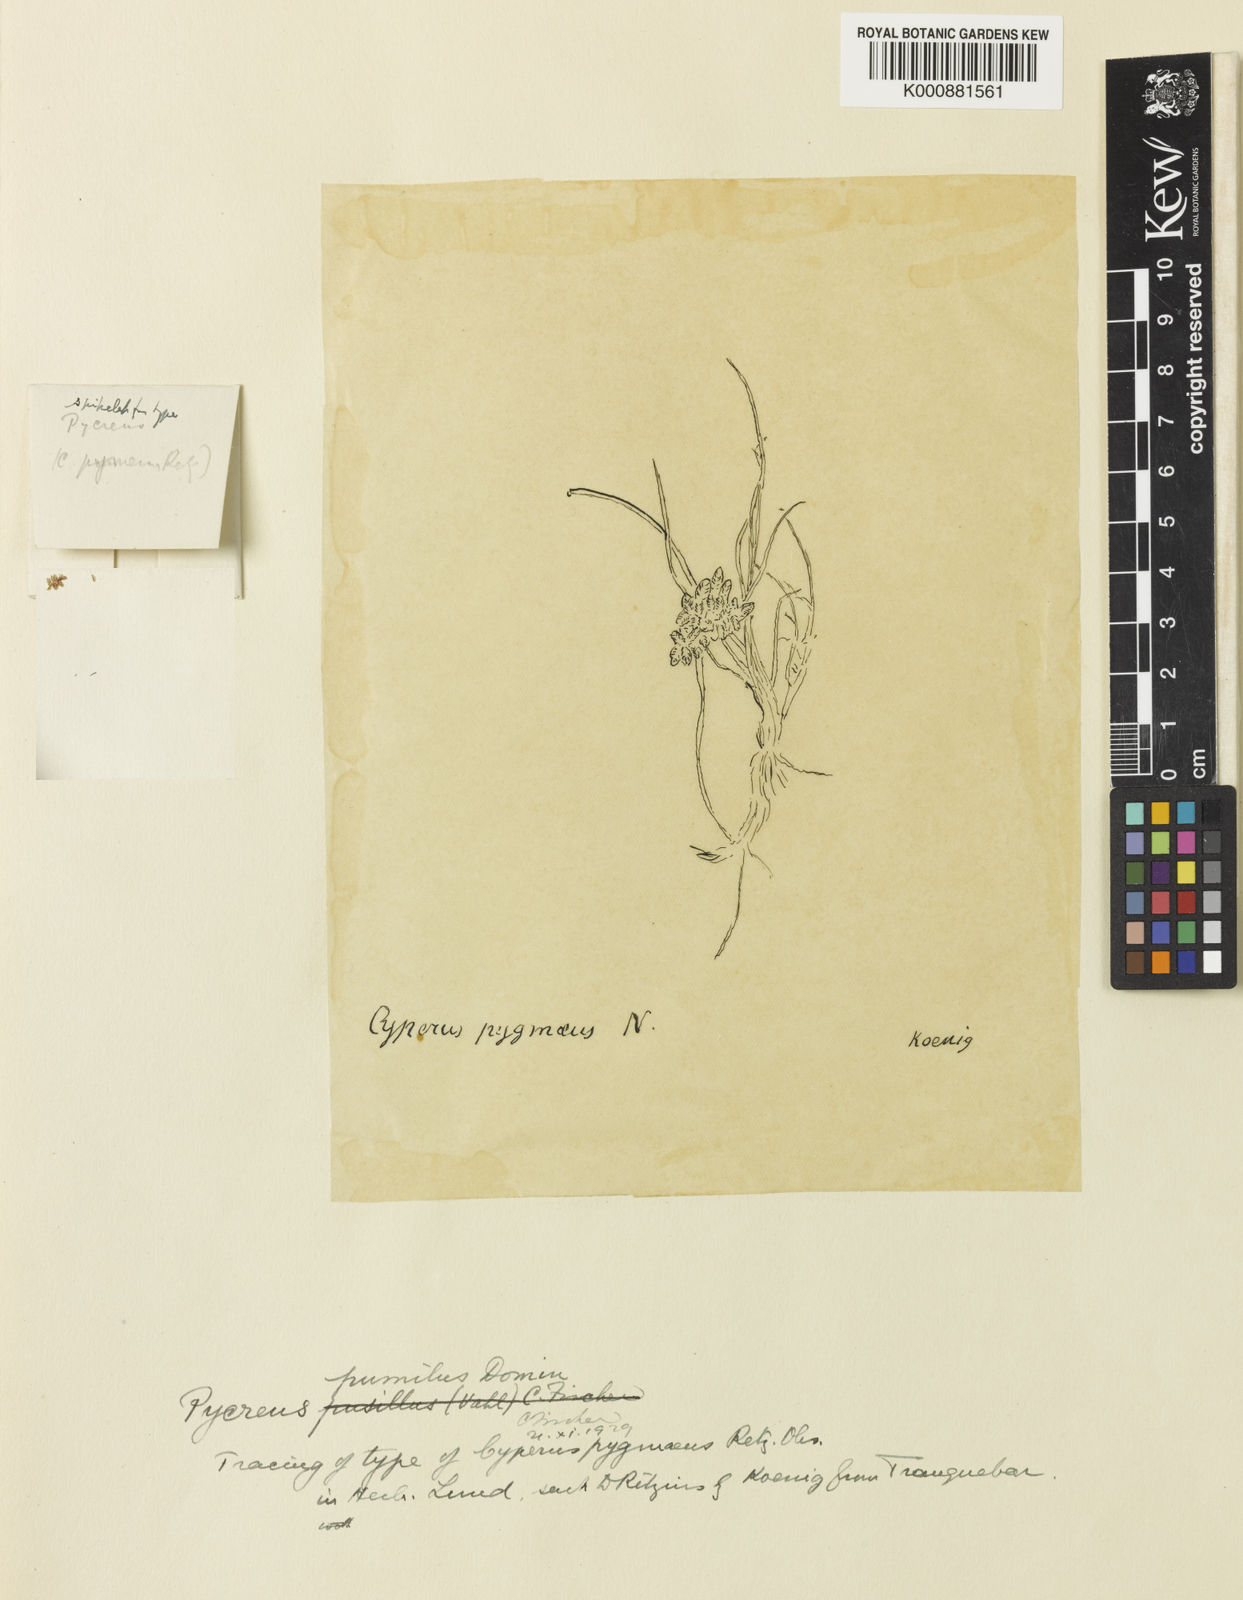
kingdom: Plantae
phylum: Tracheophyta
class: Liliopsida
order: Poales
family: Cyperaceae
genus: Cyperus
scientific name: Cyperus
